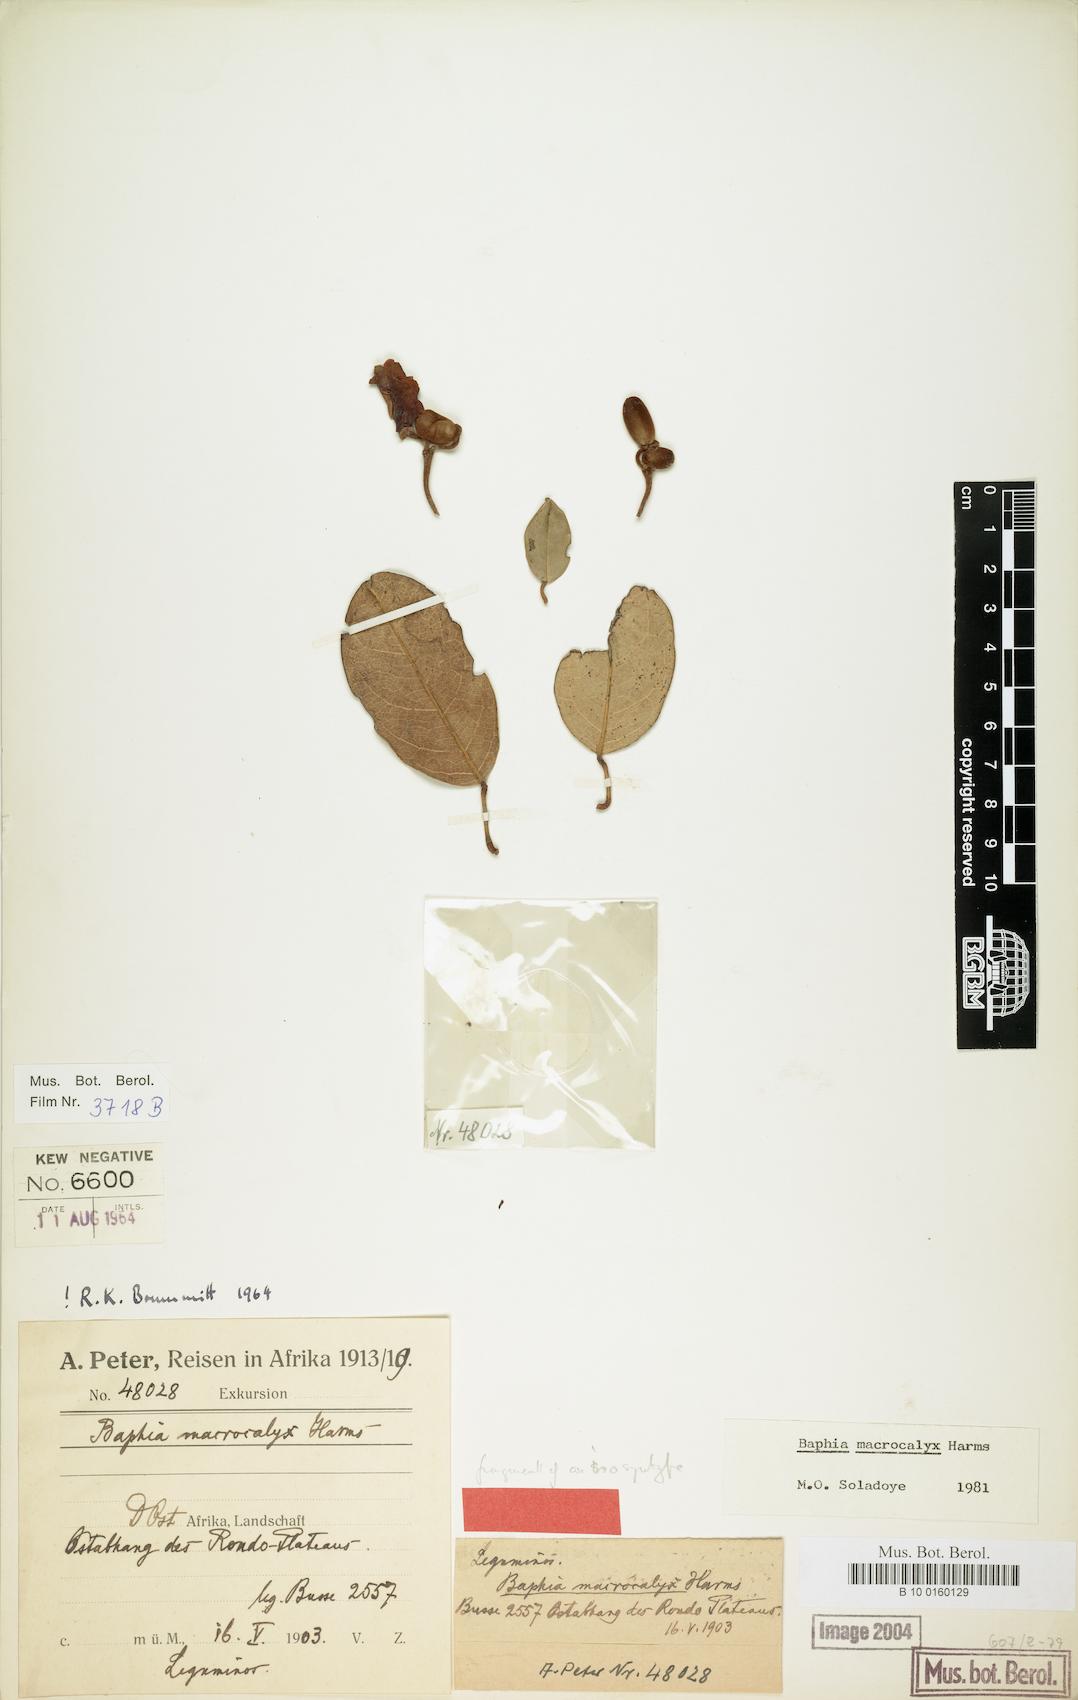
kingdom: Plantae
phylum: Tracheophyta
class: Magnoliopsida
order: Fabales
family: Fabaceae
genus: Baphia
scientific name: Baphia macrocalyx
